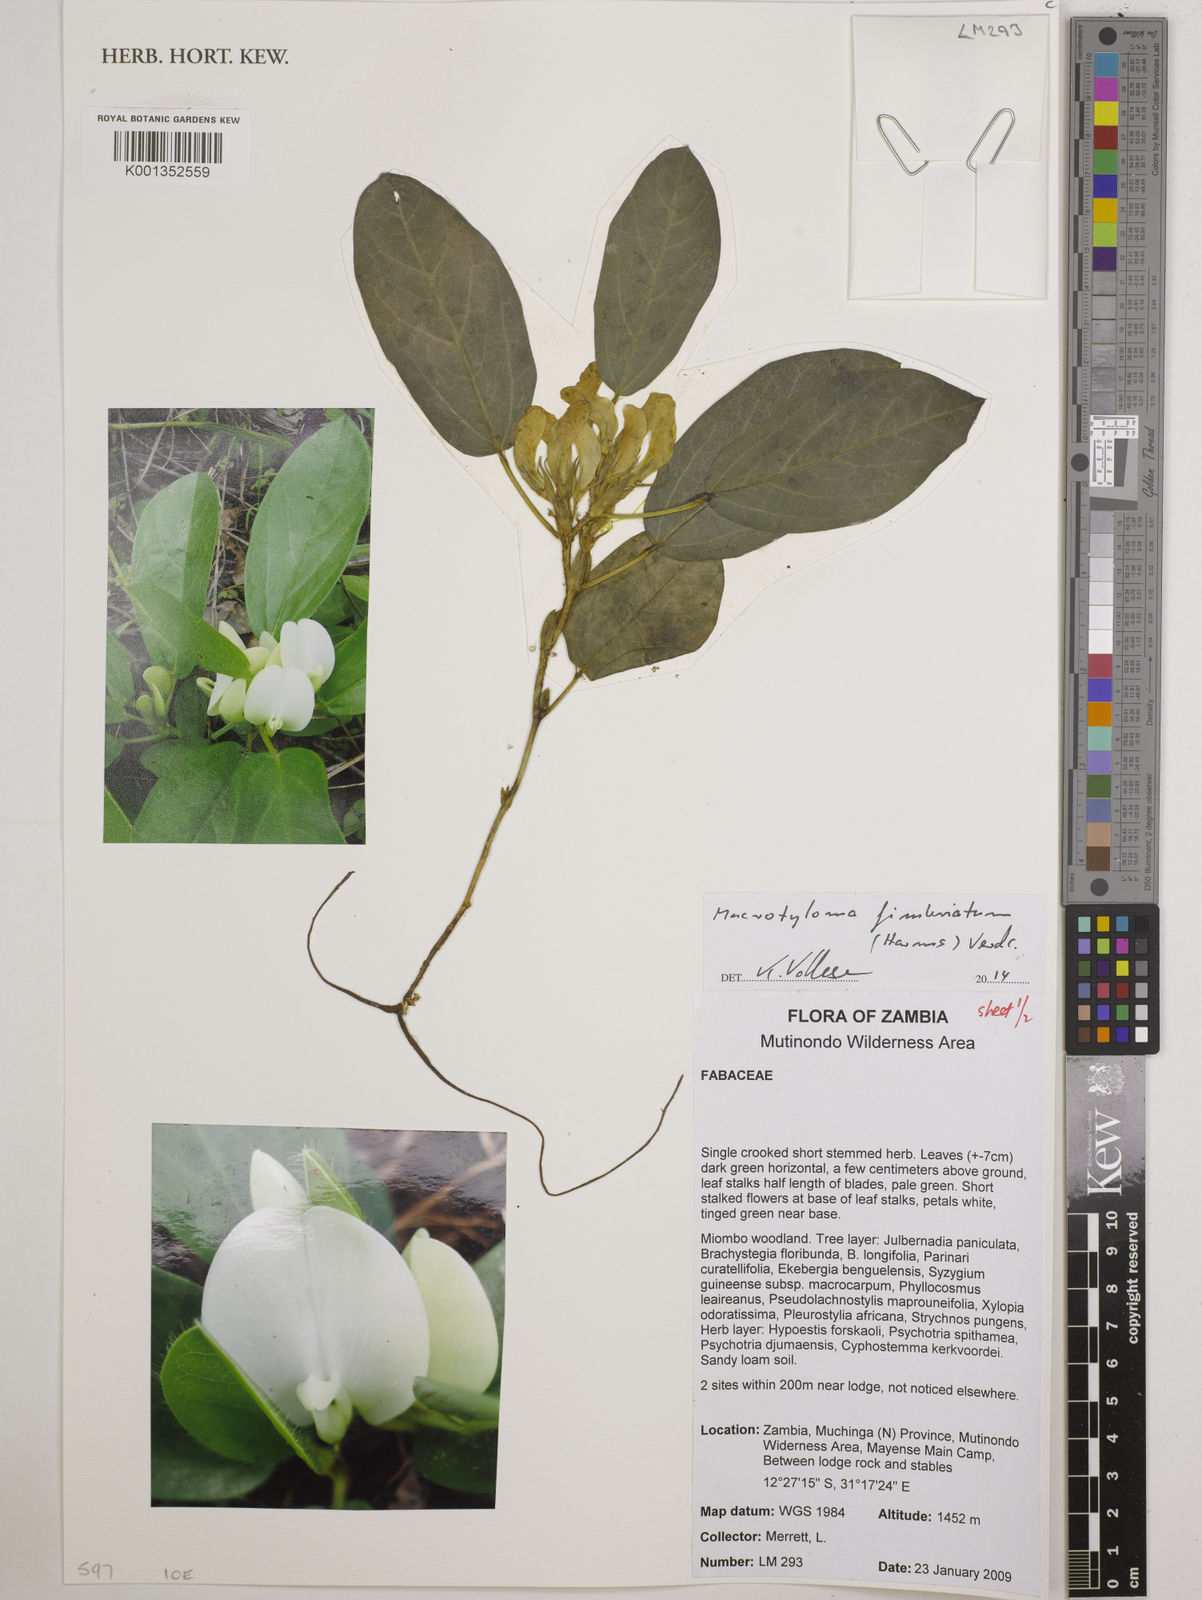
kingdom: Plantae
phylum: Tracheophyta
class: Magnoliopsida
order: Fabales
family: Fabaceae
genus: Macrotyloma
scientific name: Macrotyloma fimbriatum
